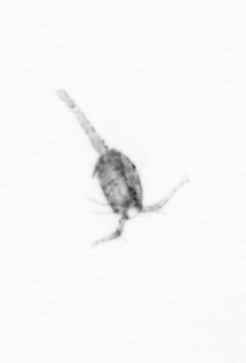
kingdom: Animalia
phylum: Arthropoda
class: Copepoda
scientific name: Copepoda
